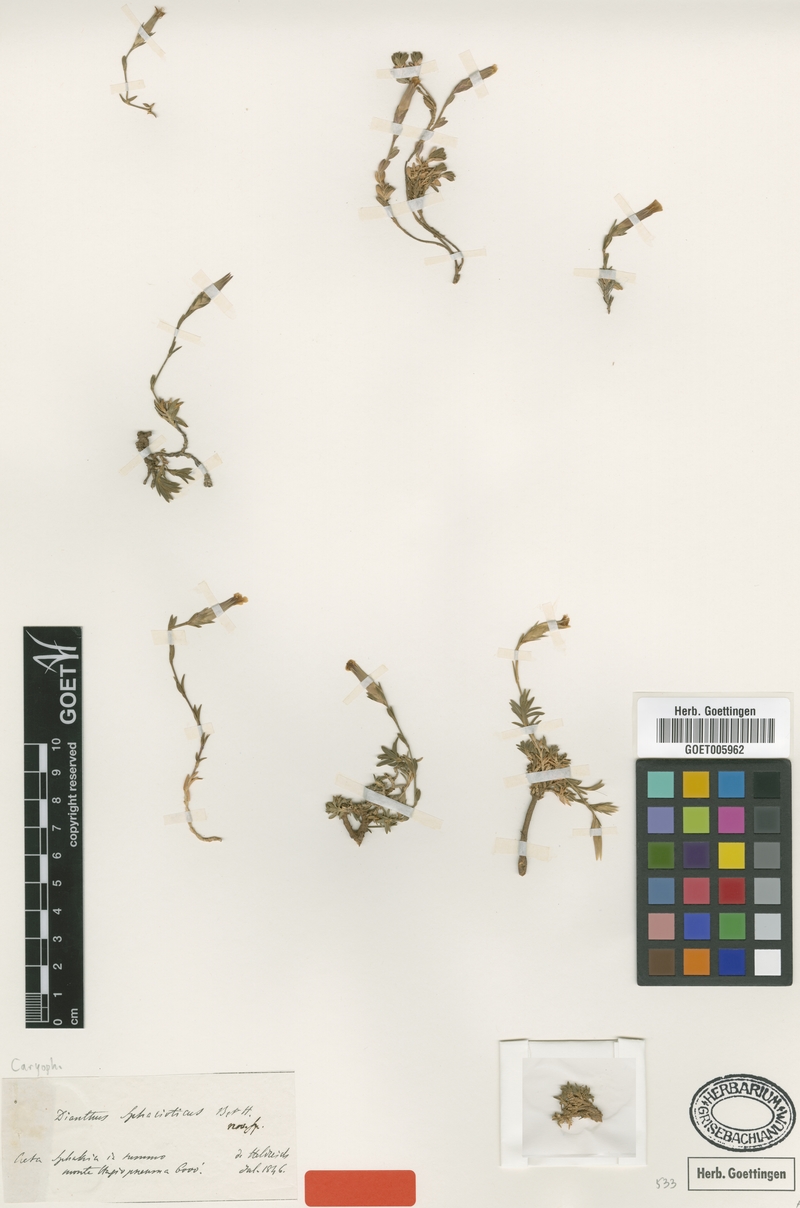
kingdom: Plantae
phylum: Tracheophyta
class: Magnoliopsida
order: Caryophyllales
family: Caryophyllaceae
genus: Dianthus
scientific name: Dianthus sphacioticus
